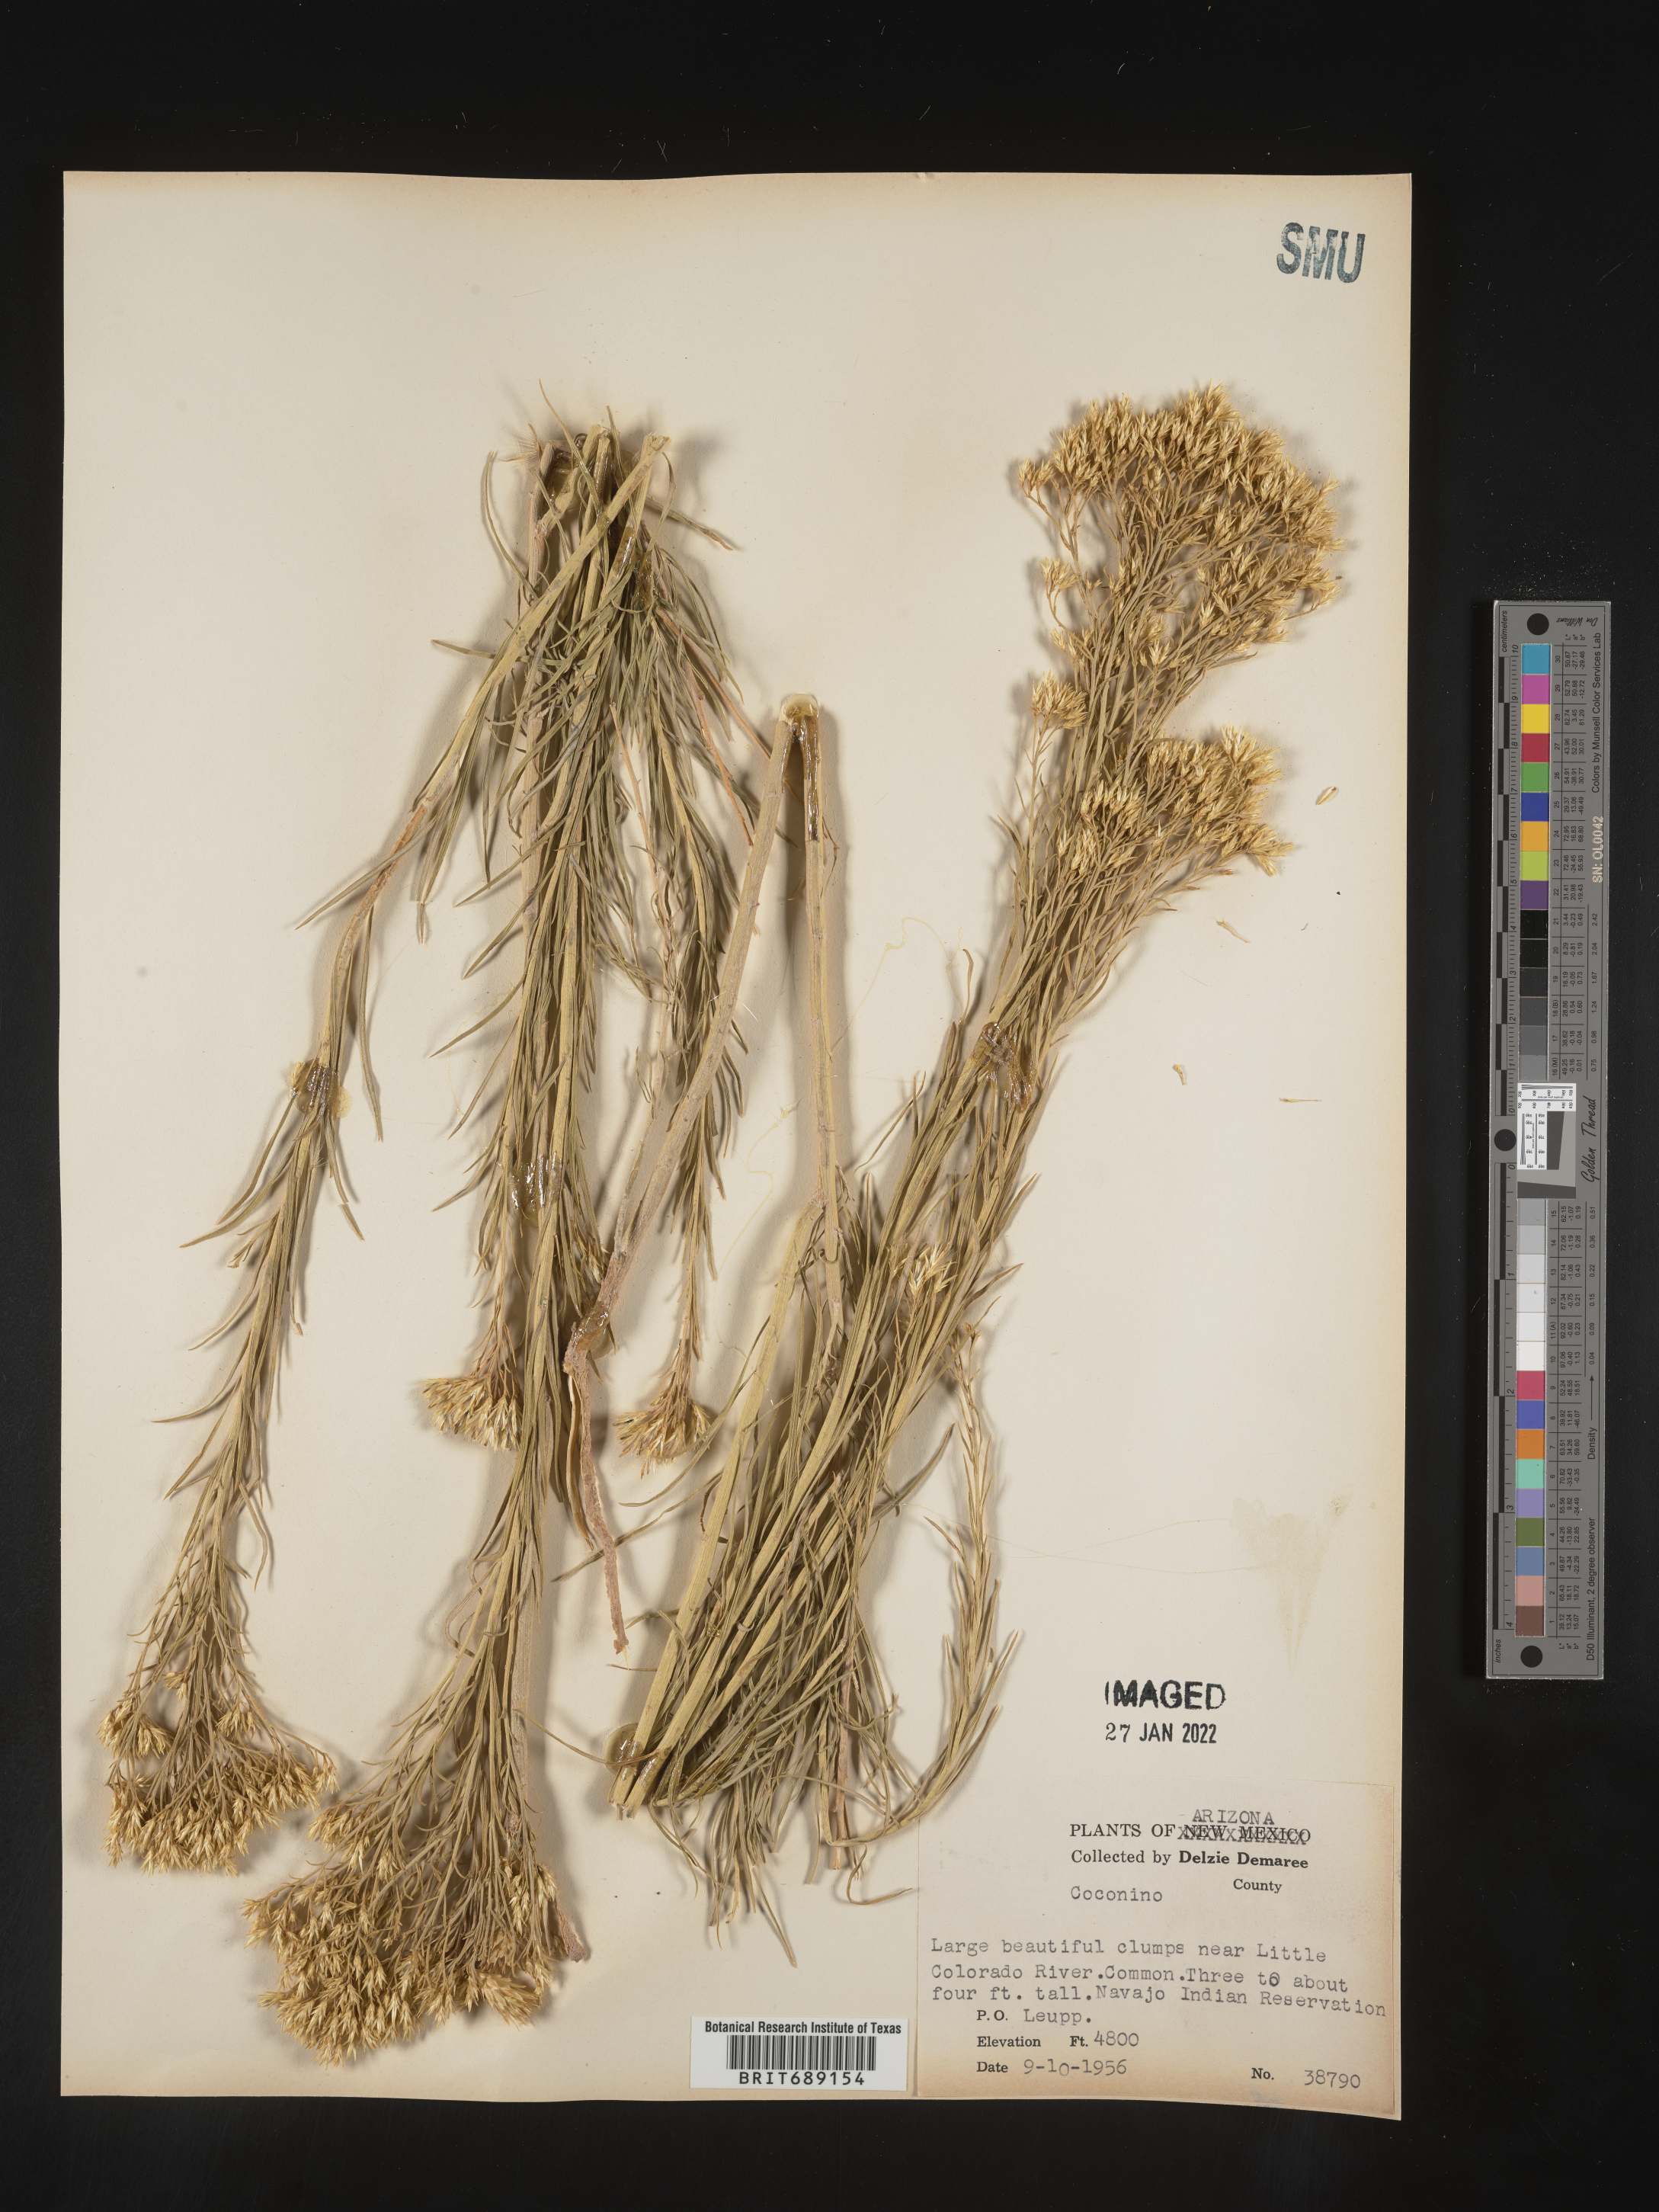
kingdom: Plantae
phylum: Tracheophyta
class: Magnoliopsida
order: Asterales
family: Asteraceae
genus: Chrysothamnus
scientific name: Chrysothamnus
